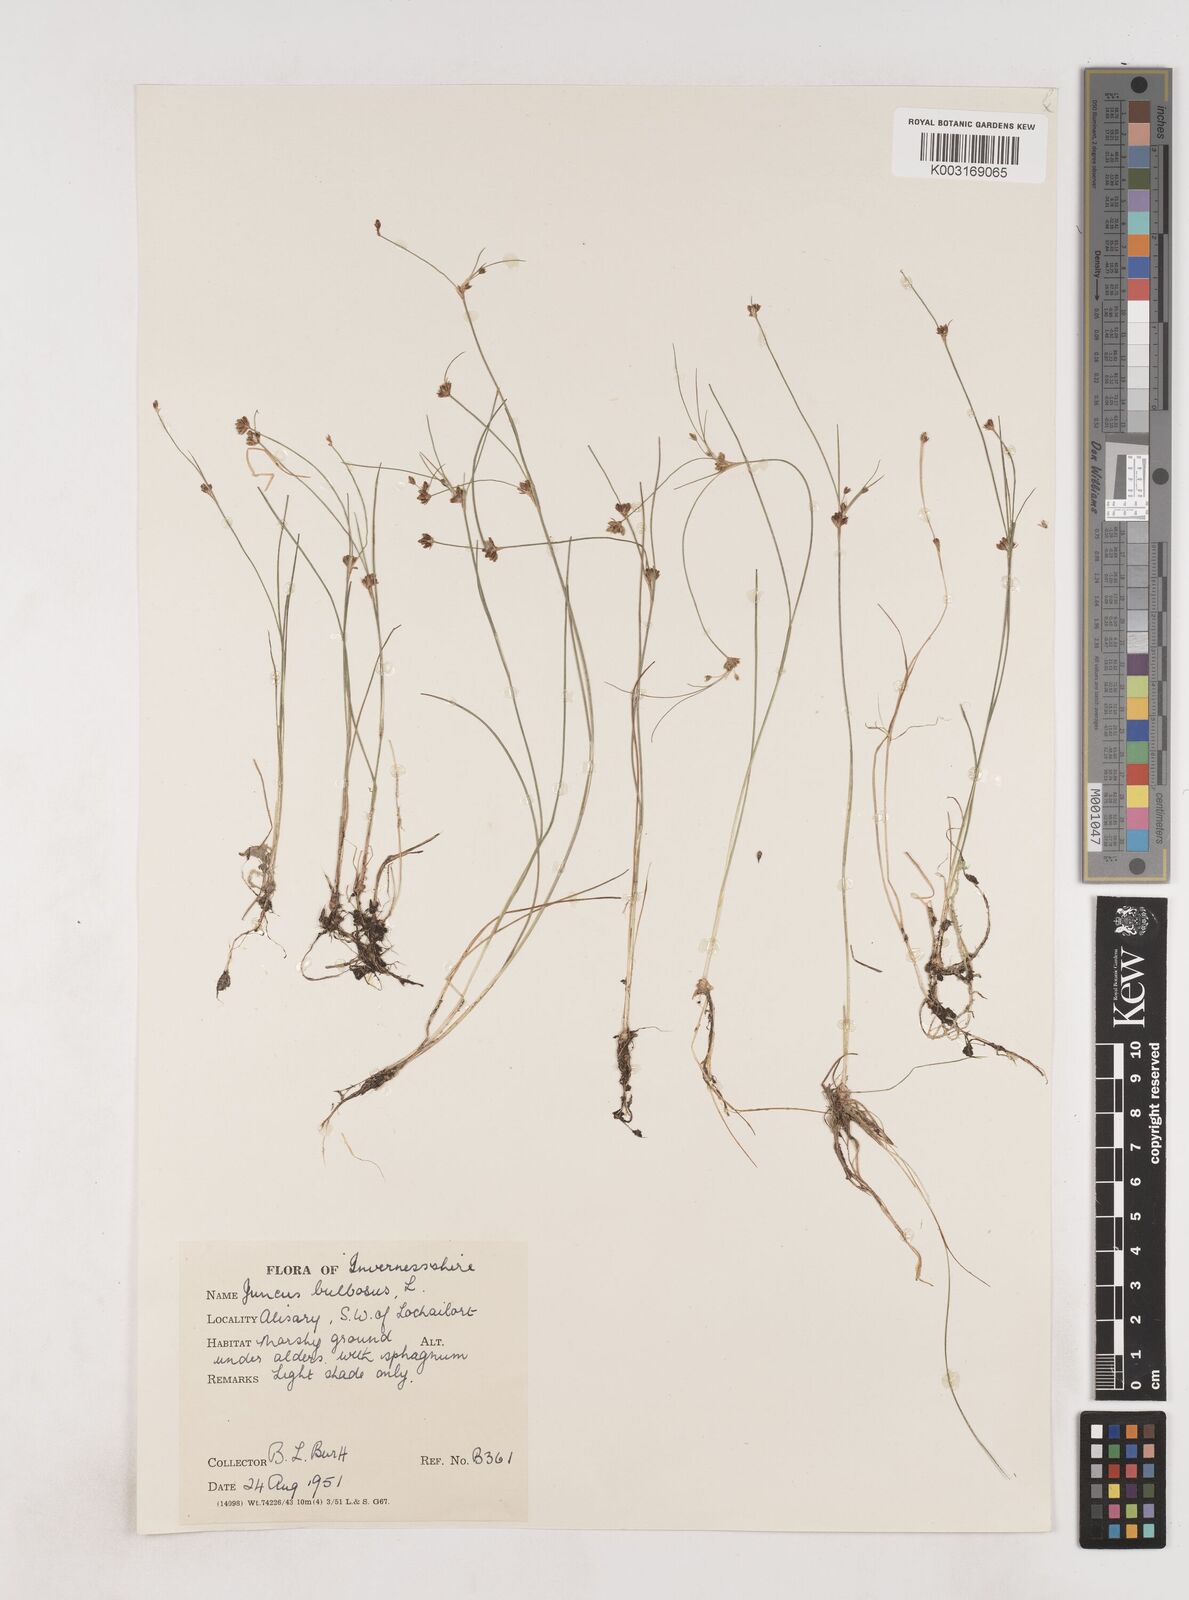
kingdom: Plantae
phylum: Tracheophyta
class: Liliopsida
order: Poales
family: Juncaceae
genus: Juncus
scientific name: Juncus bulbosus
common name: Bulbous rush
